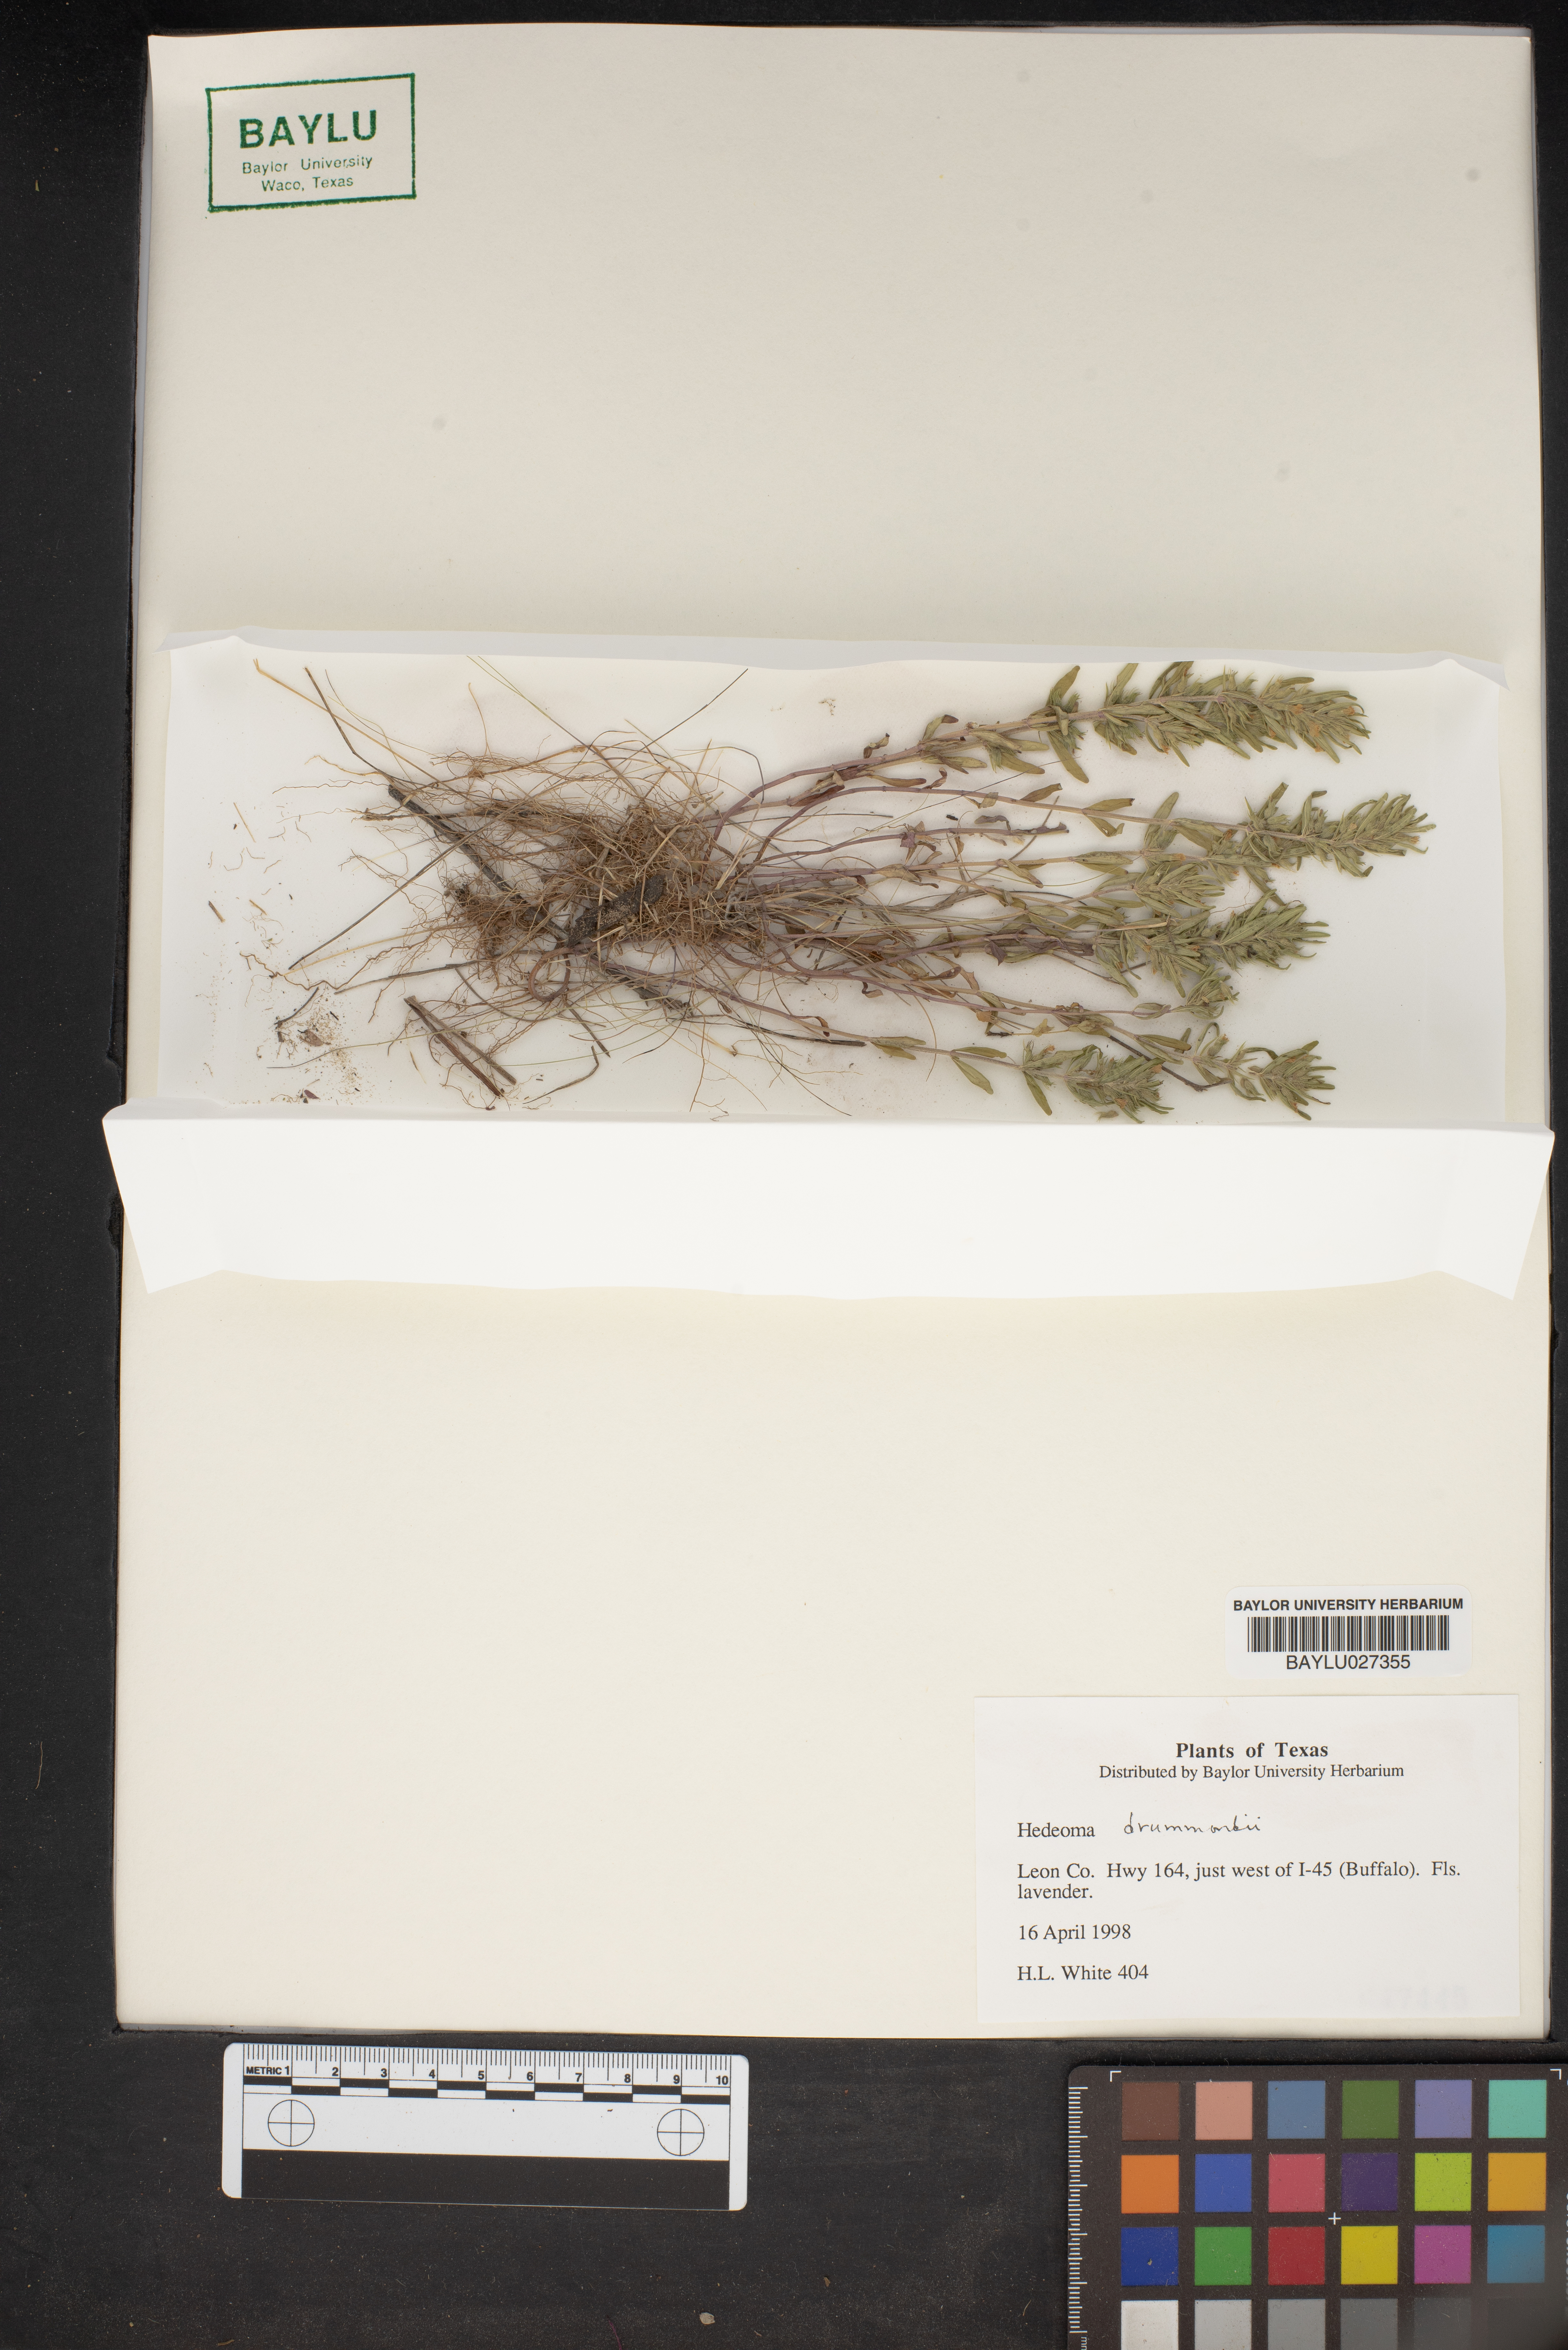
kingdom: Plantae
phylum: Tracheophyta
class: Magnoliopsida
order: Lamiales
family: Lamiaceae
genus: Hedeoma
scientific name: Hedeoma drummondii
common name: New mexico pennyroyal
